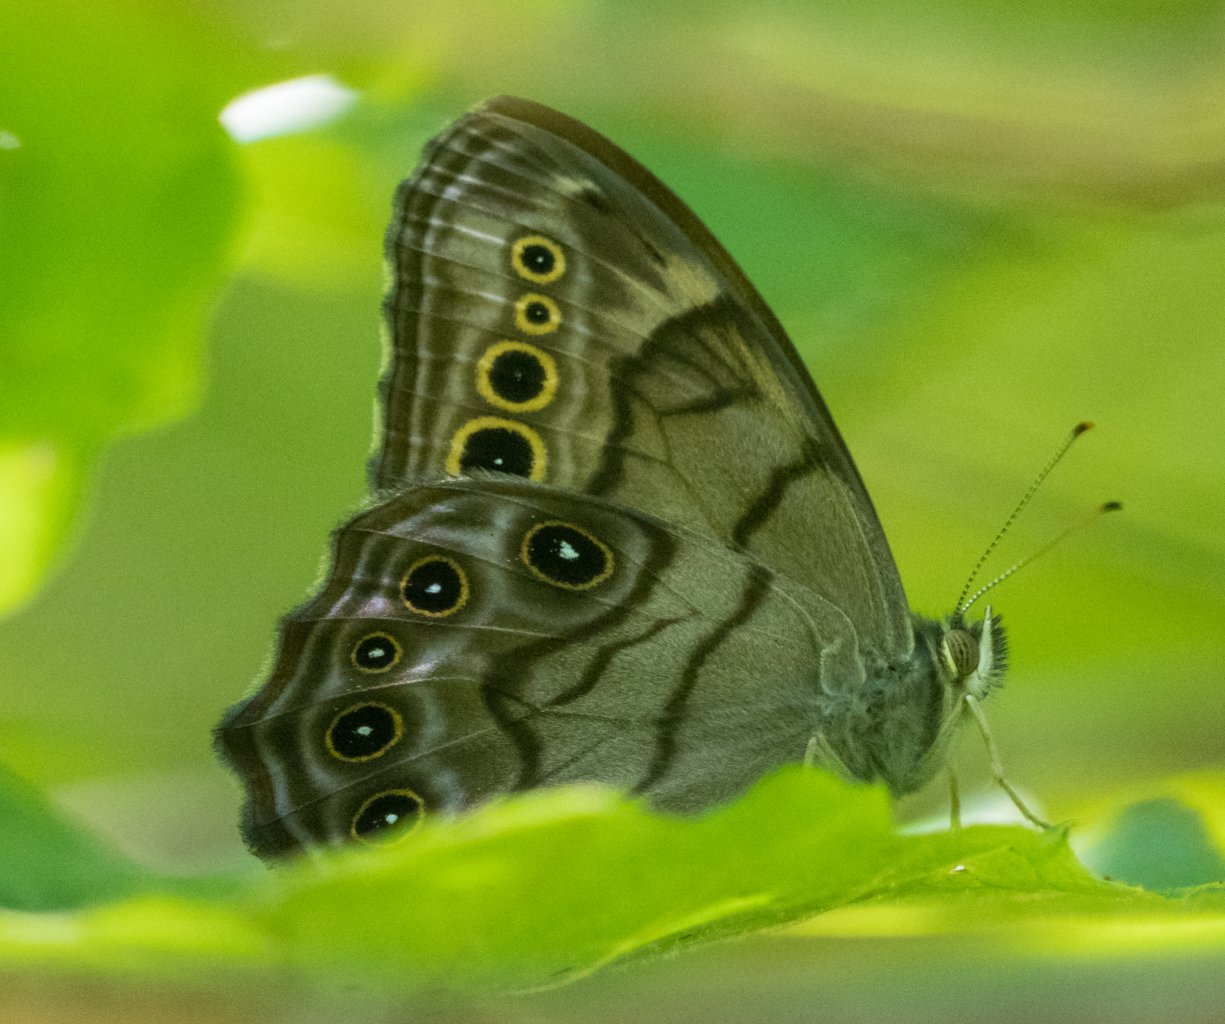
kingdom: Animalia
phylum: Arthropoda
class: Insecta
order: Lepidoptera
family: Nymphalidae
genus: Lethe
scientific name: Lethe anthedon
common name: Northern Pearly-Eye
